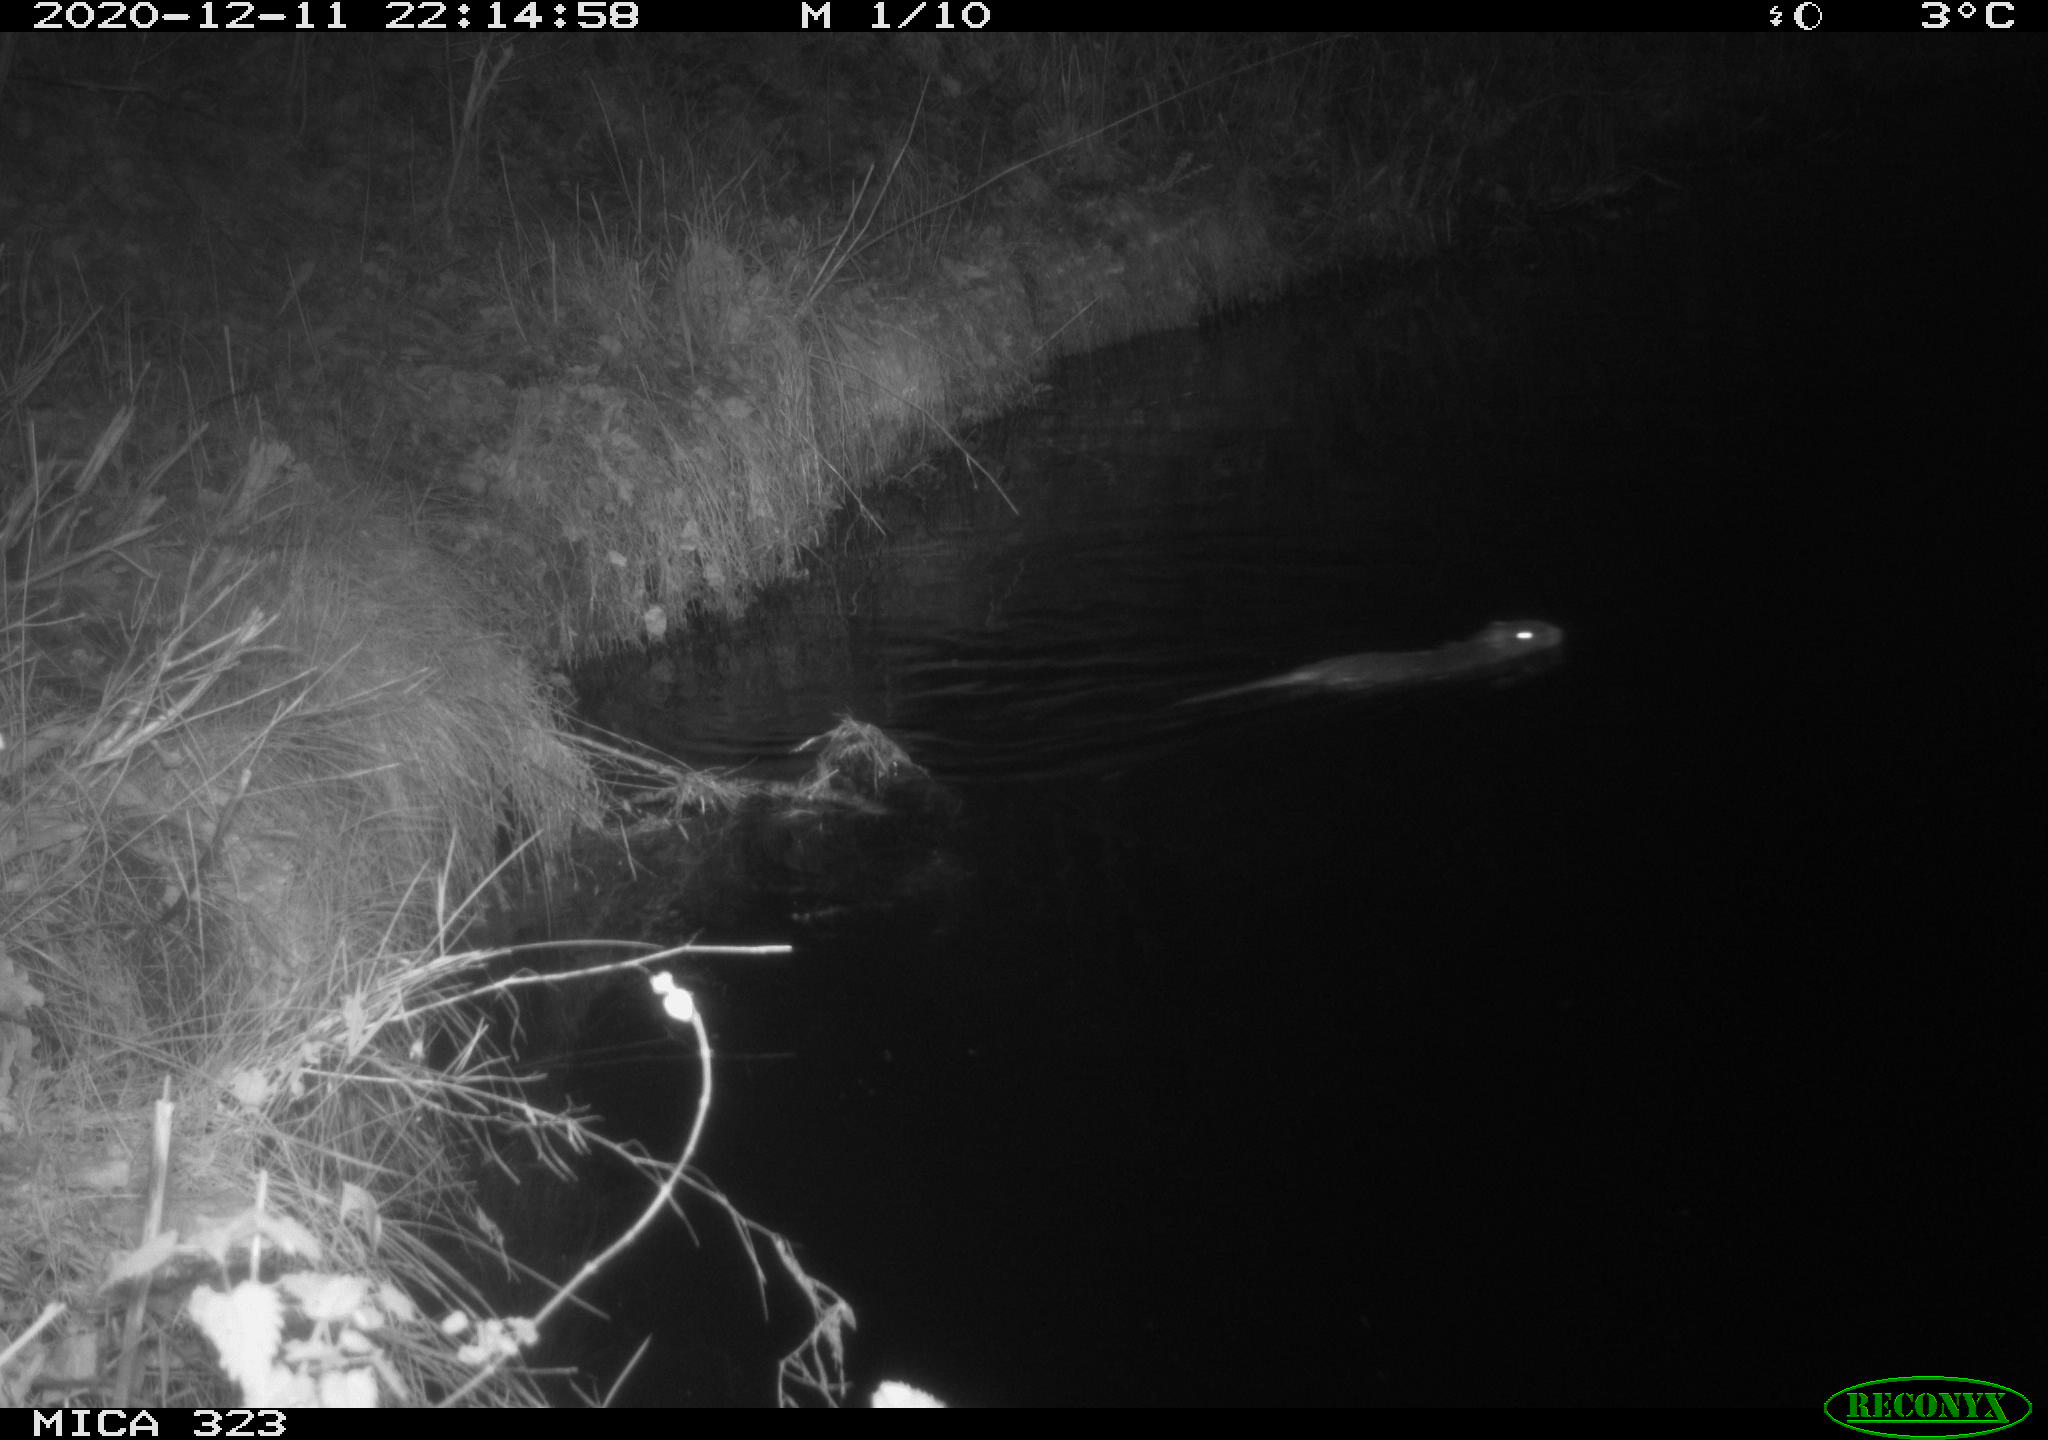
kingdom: Animalia
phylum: Chordata
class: Mammalia
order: Rodentia
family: Myocastoridae
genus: Myocastor
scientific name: Myocastor coypus
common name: Coypu
